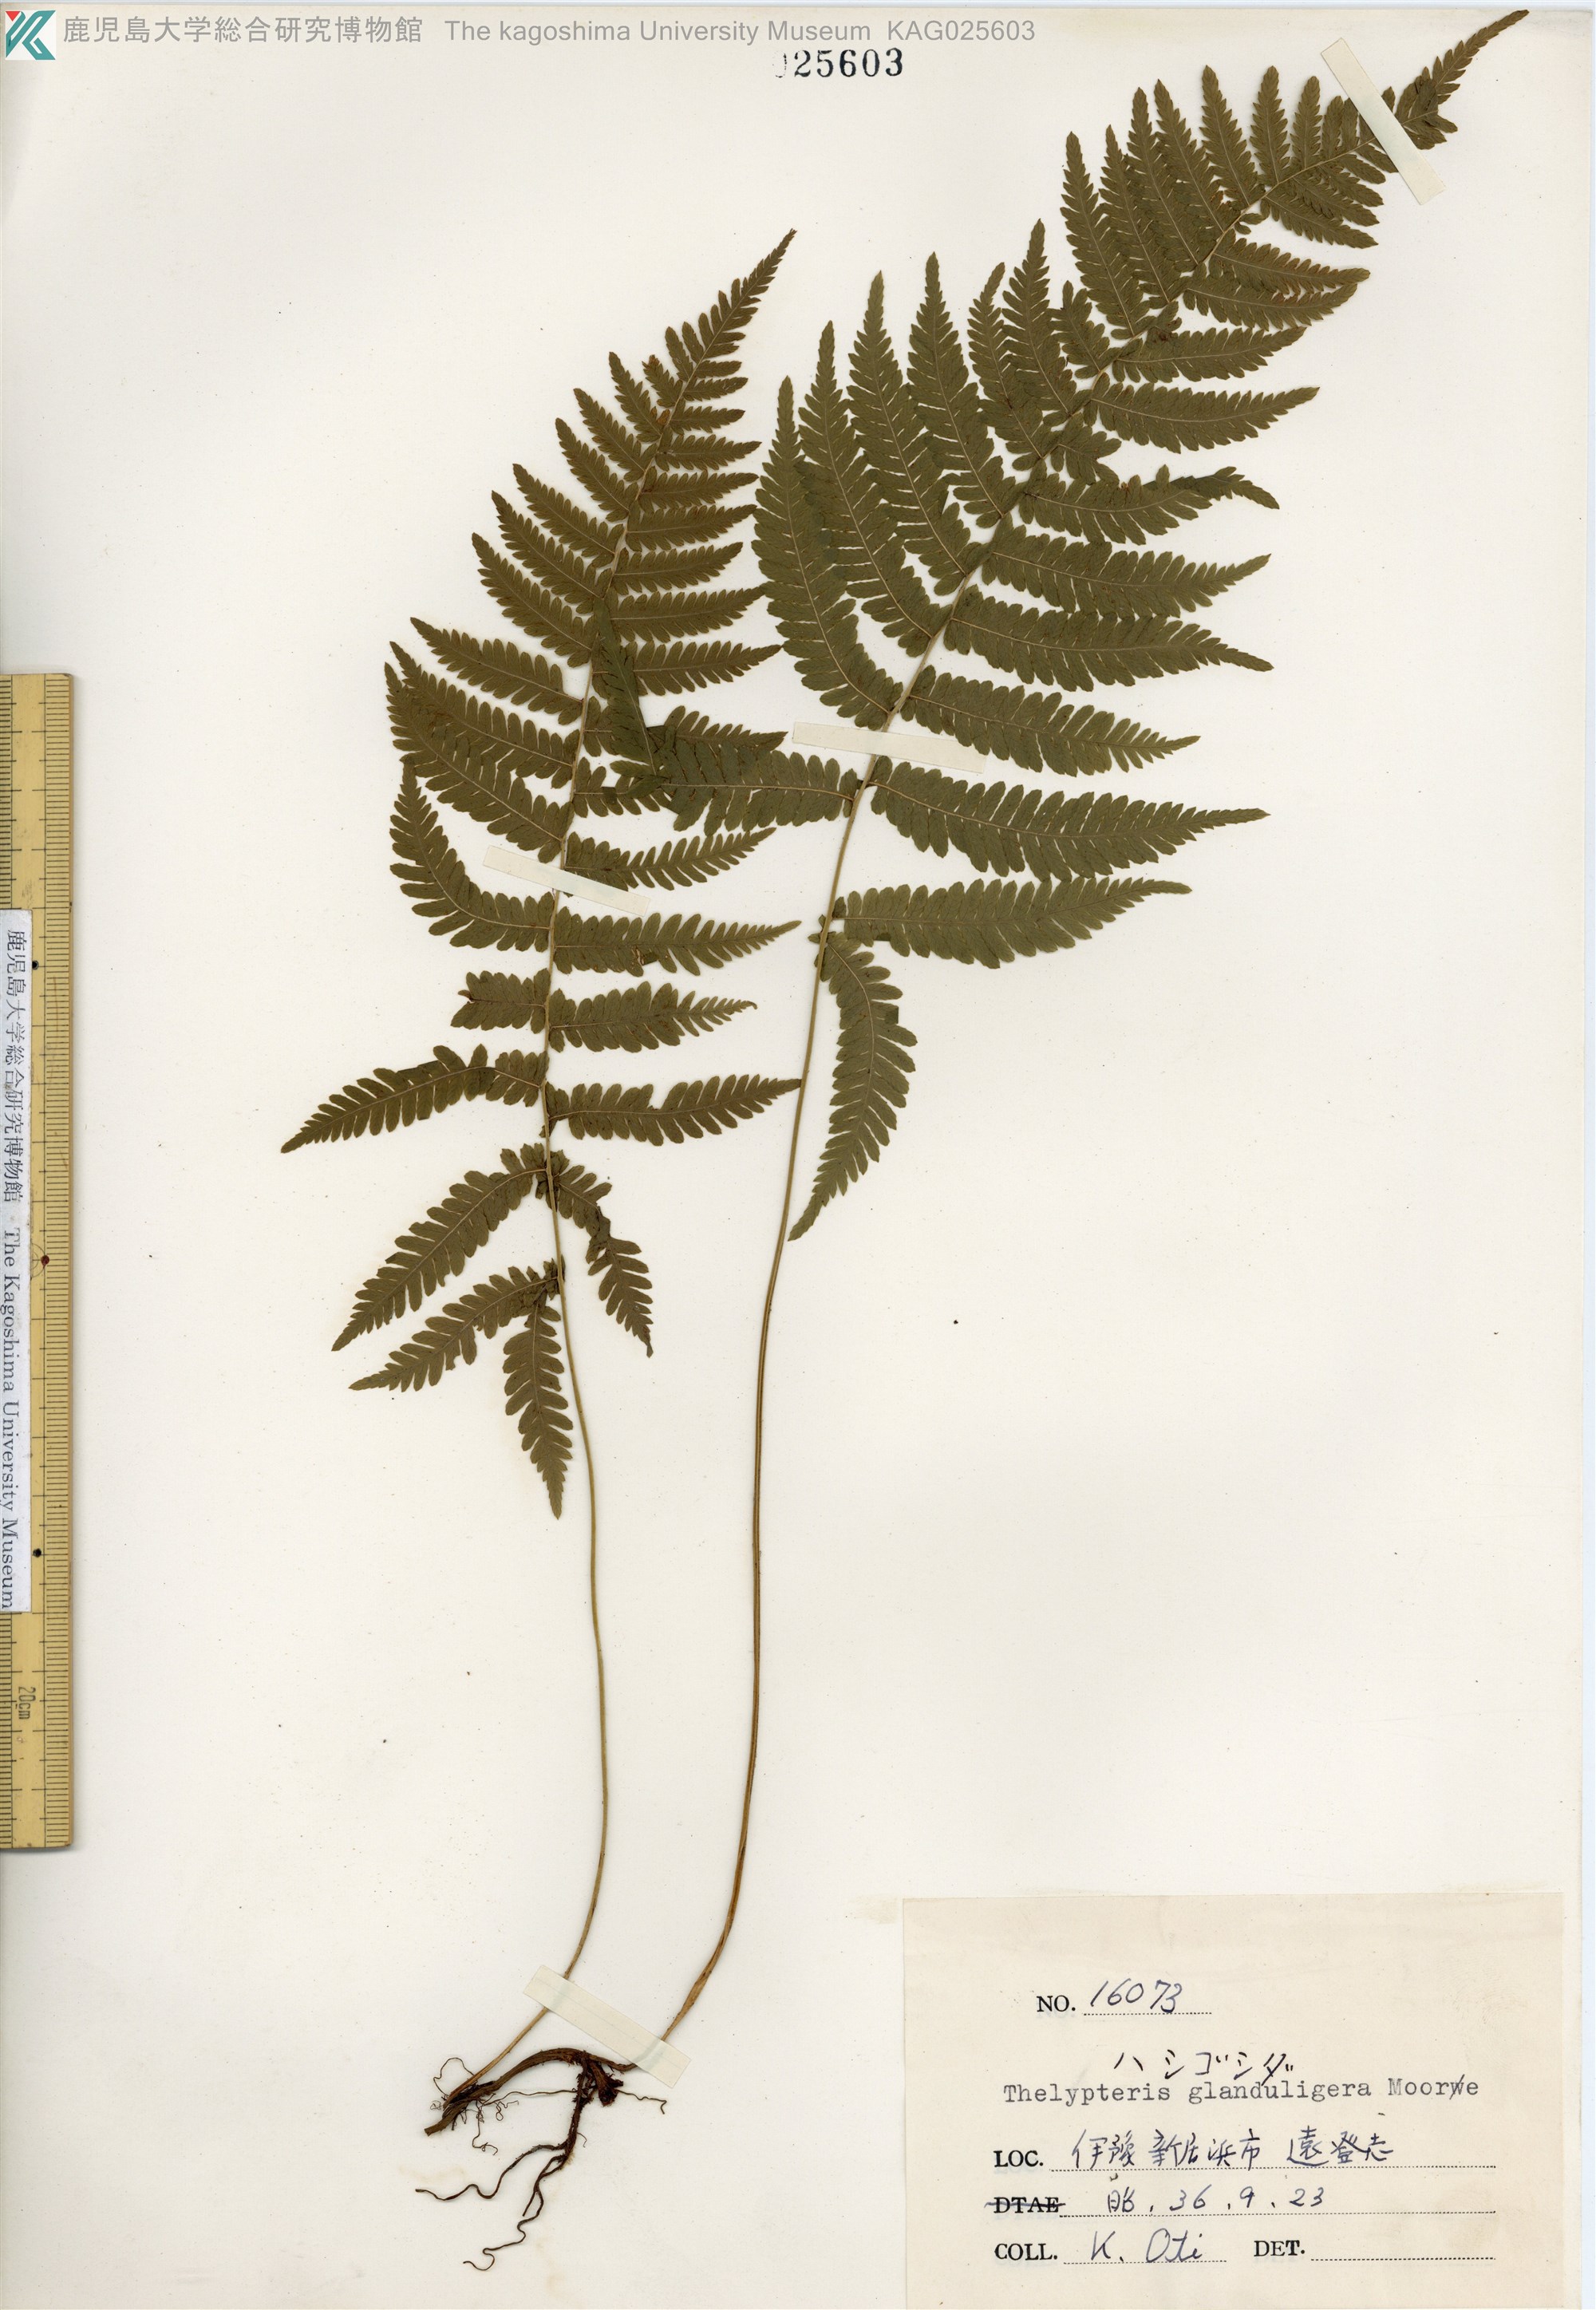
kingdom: Plantae
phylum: Tracheophyta
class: Polypodiopsida
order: Polypodiales
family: Thelypteridaceae
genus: Amauropelta
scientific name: Amauropelta glanduligera
